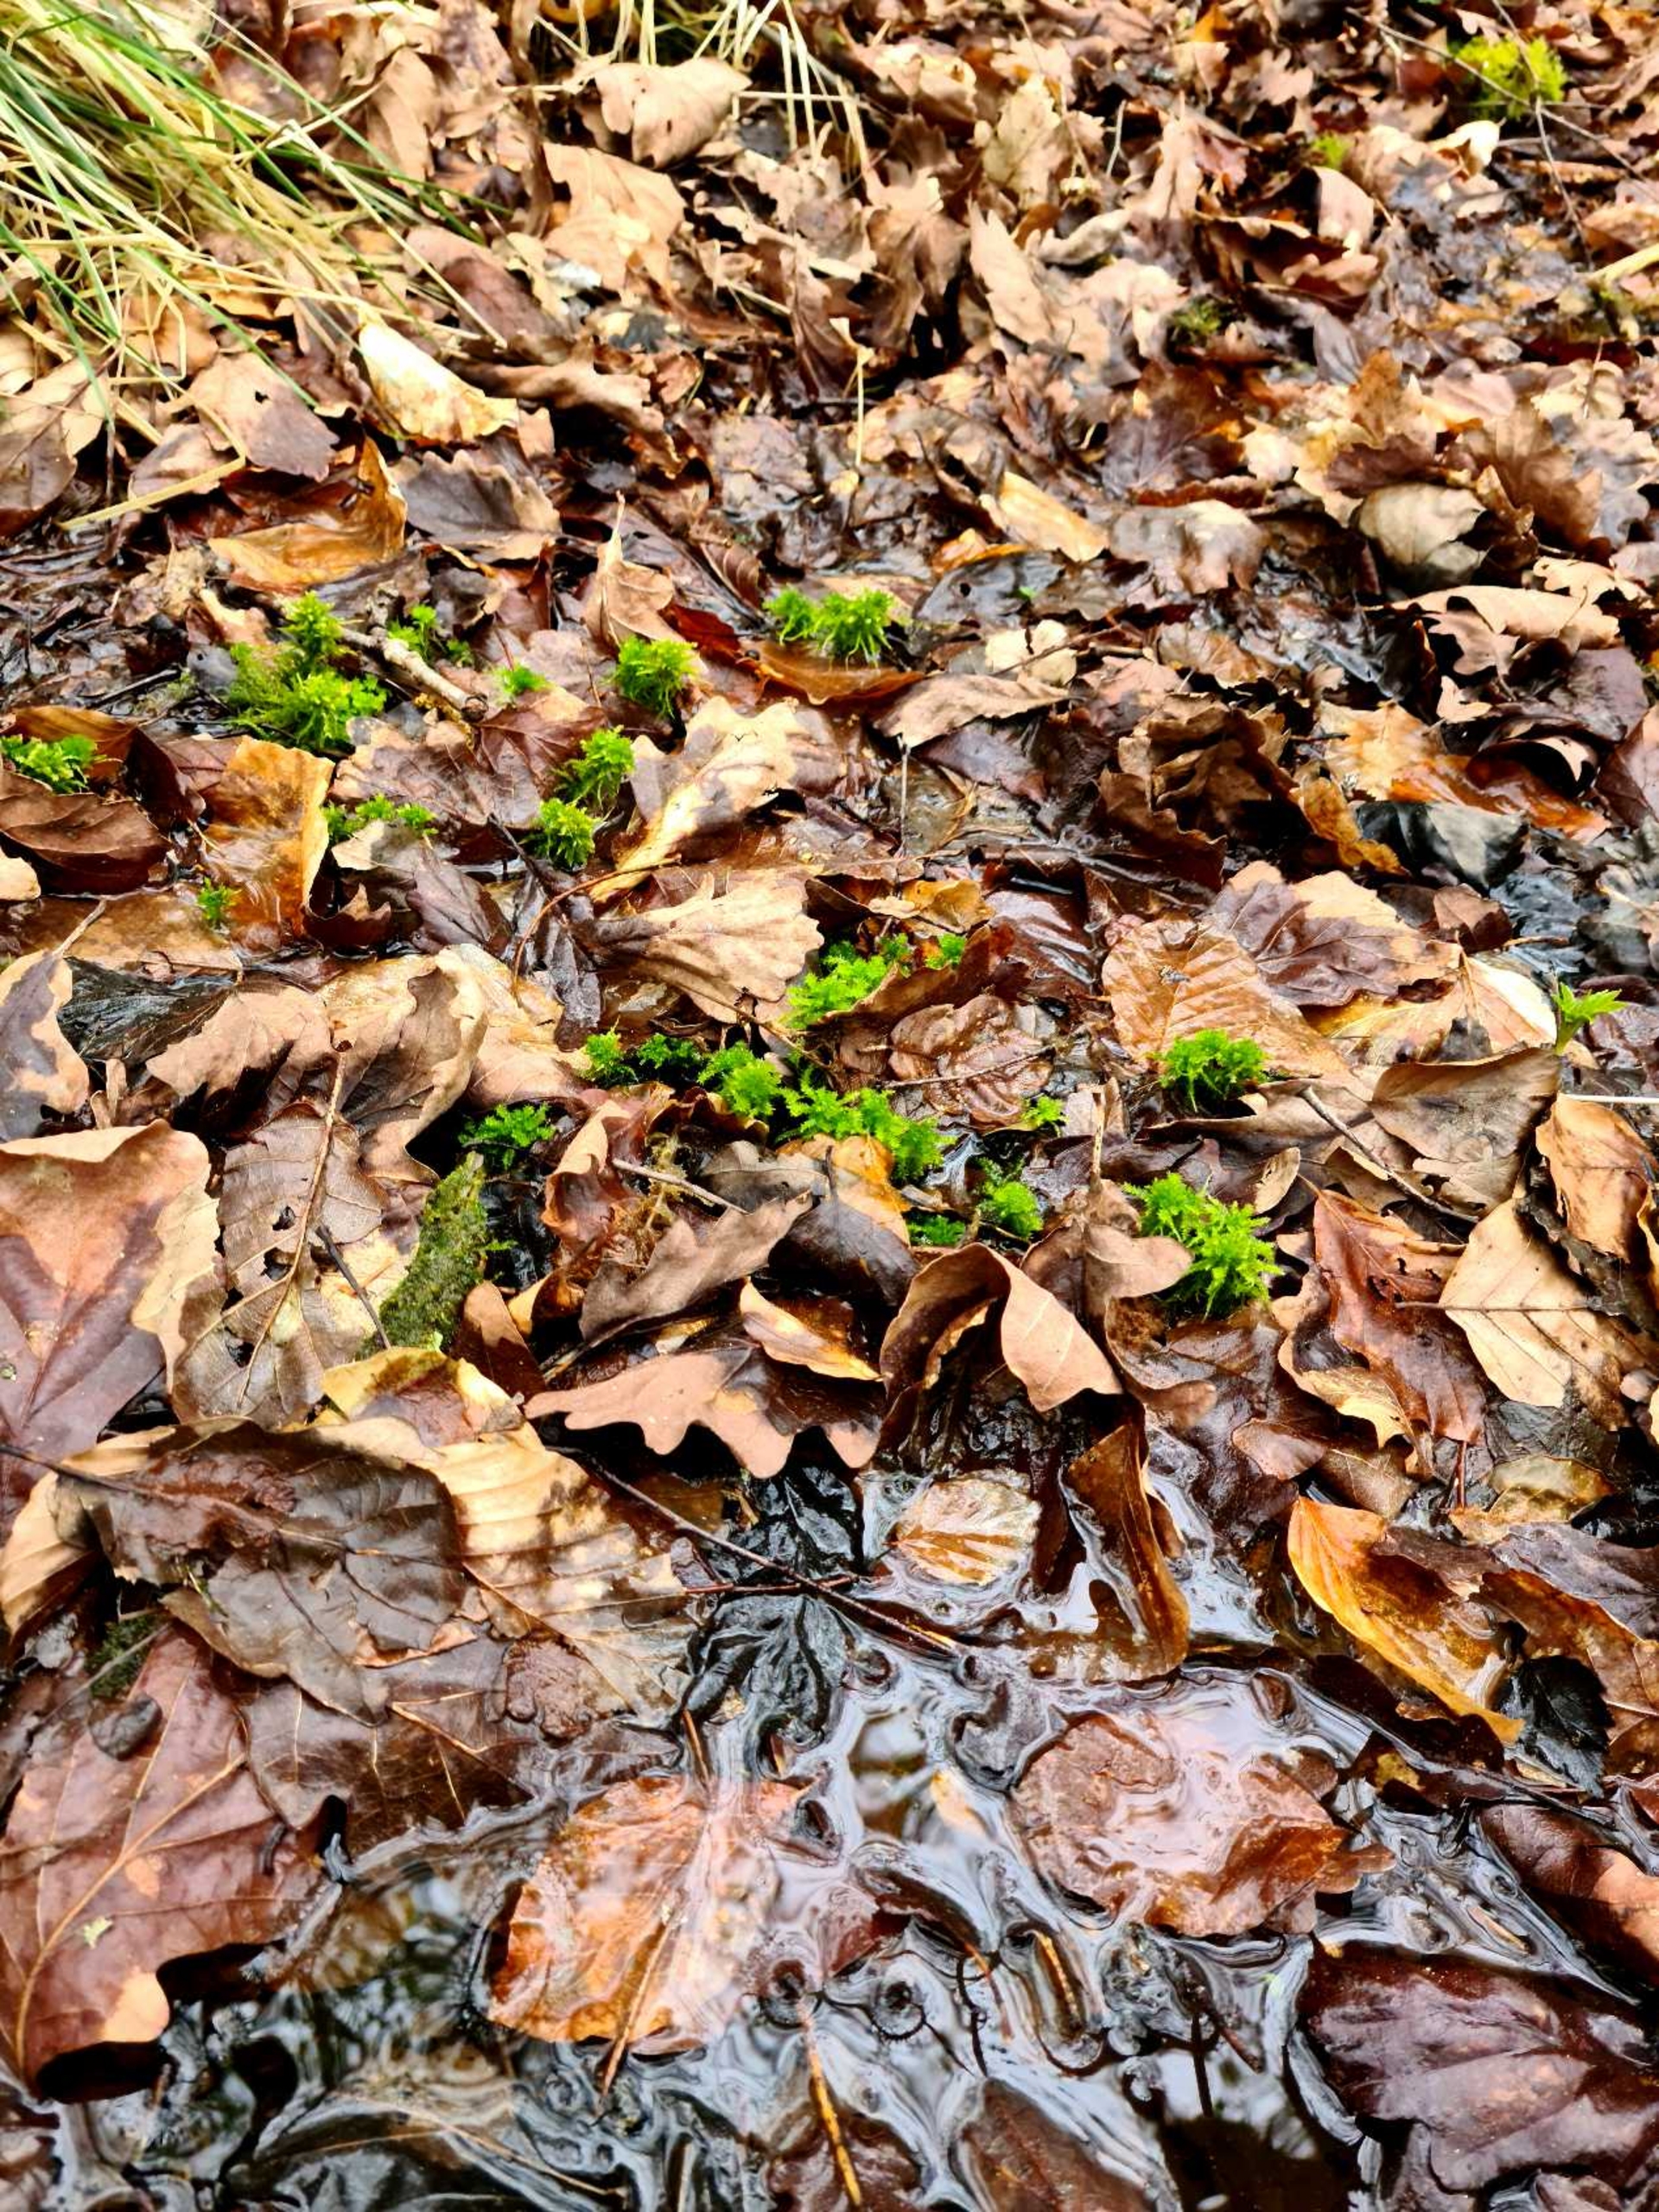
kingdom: Plantae
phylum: Bryophyta
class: Sphagnopsida
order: Sphagnales
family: Sphagnaceae
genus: Sphagnum
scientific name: Sphagnum squarrosum
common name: Udspærret tørvemos
